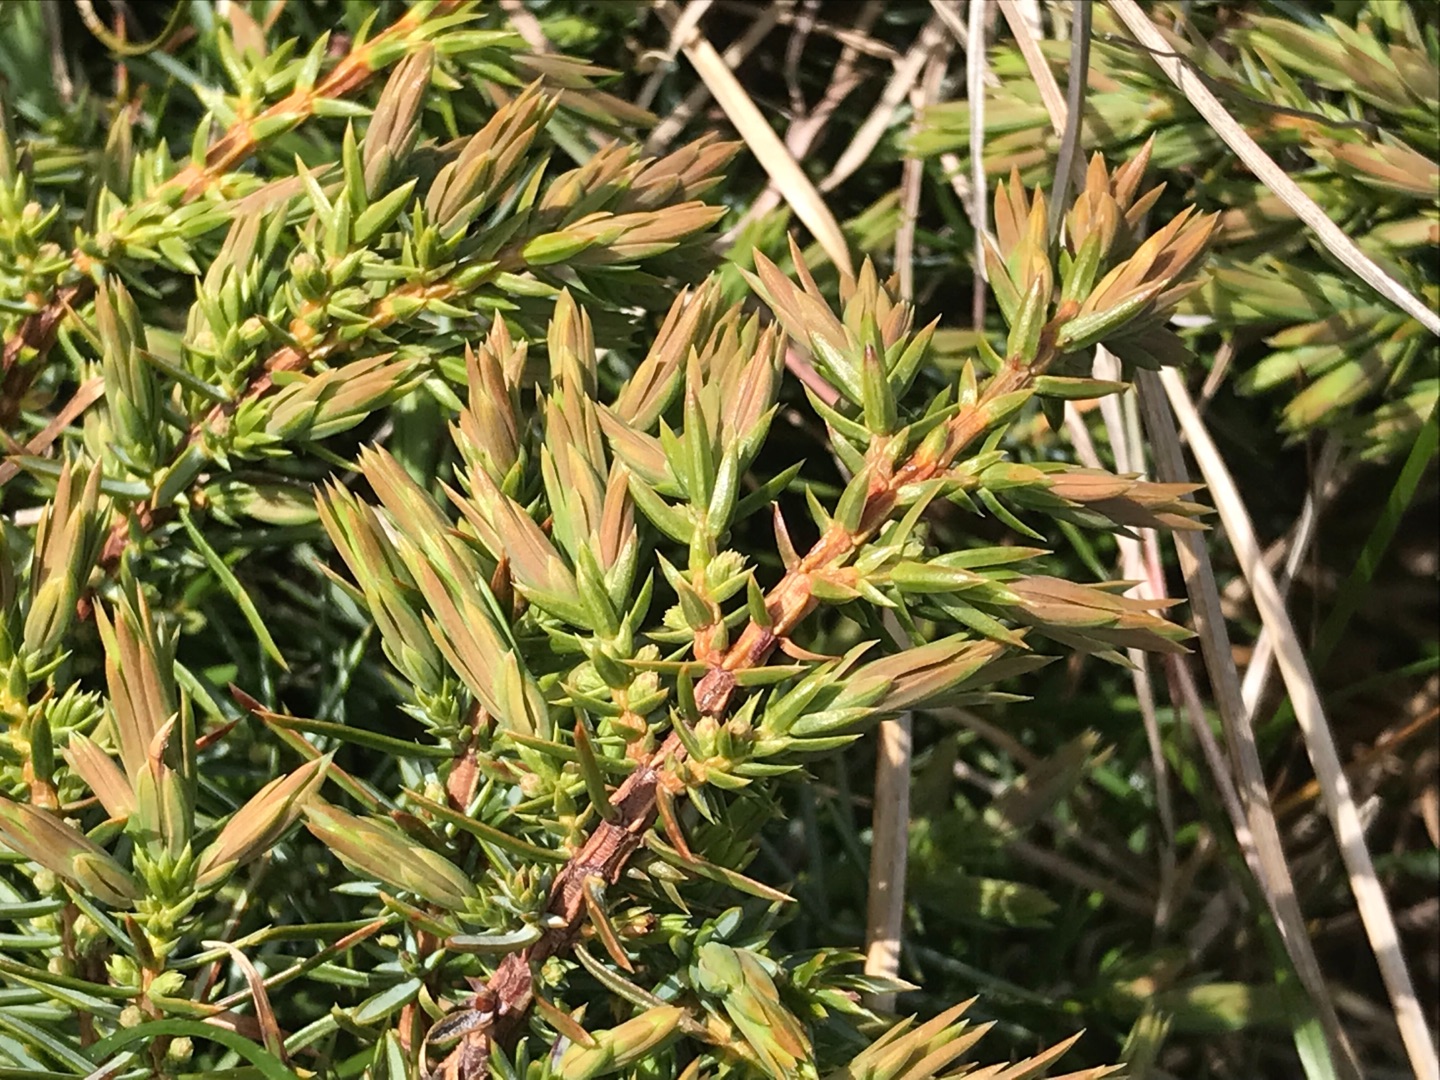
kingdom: Plantae
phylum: Tracheophyta
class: Pinopsida
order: Pinales
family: Cupressaceae
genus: Juniperus
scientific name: Juniperus communis
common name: Almindelig ene
